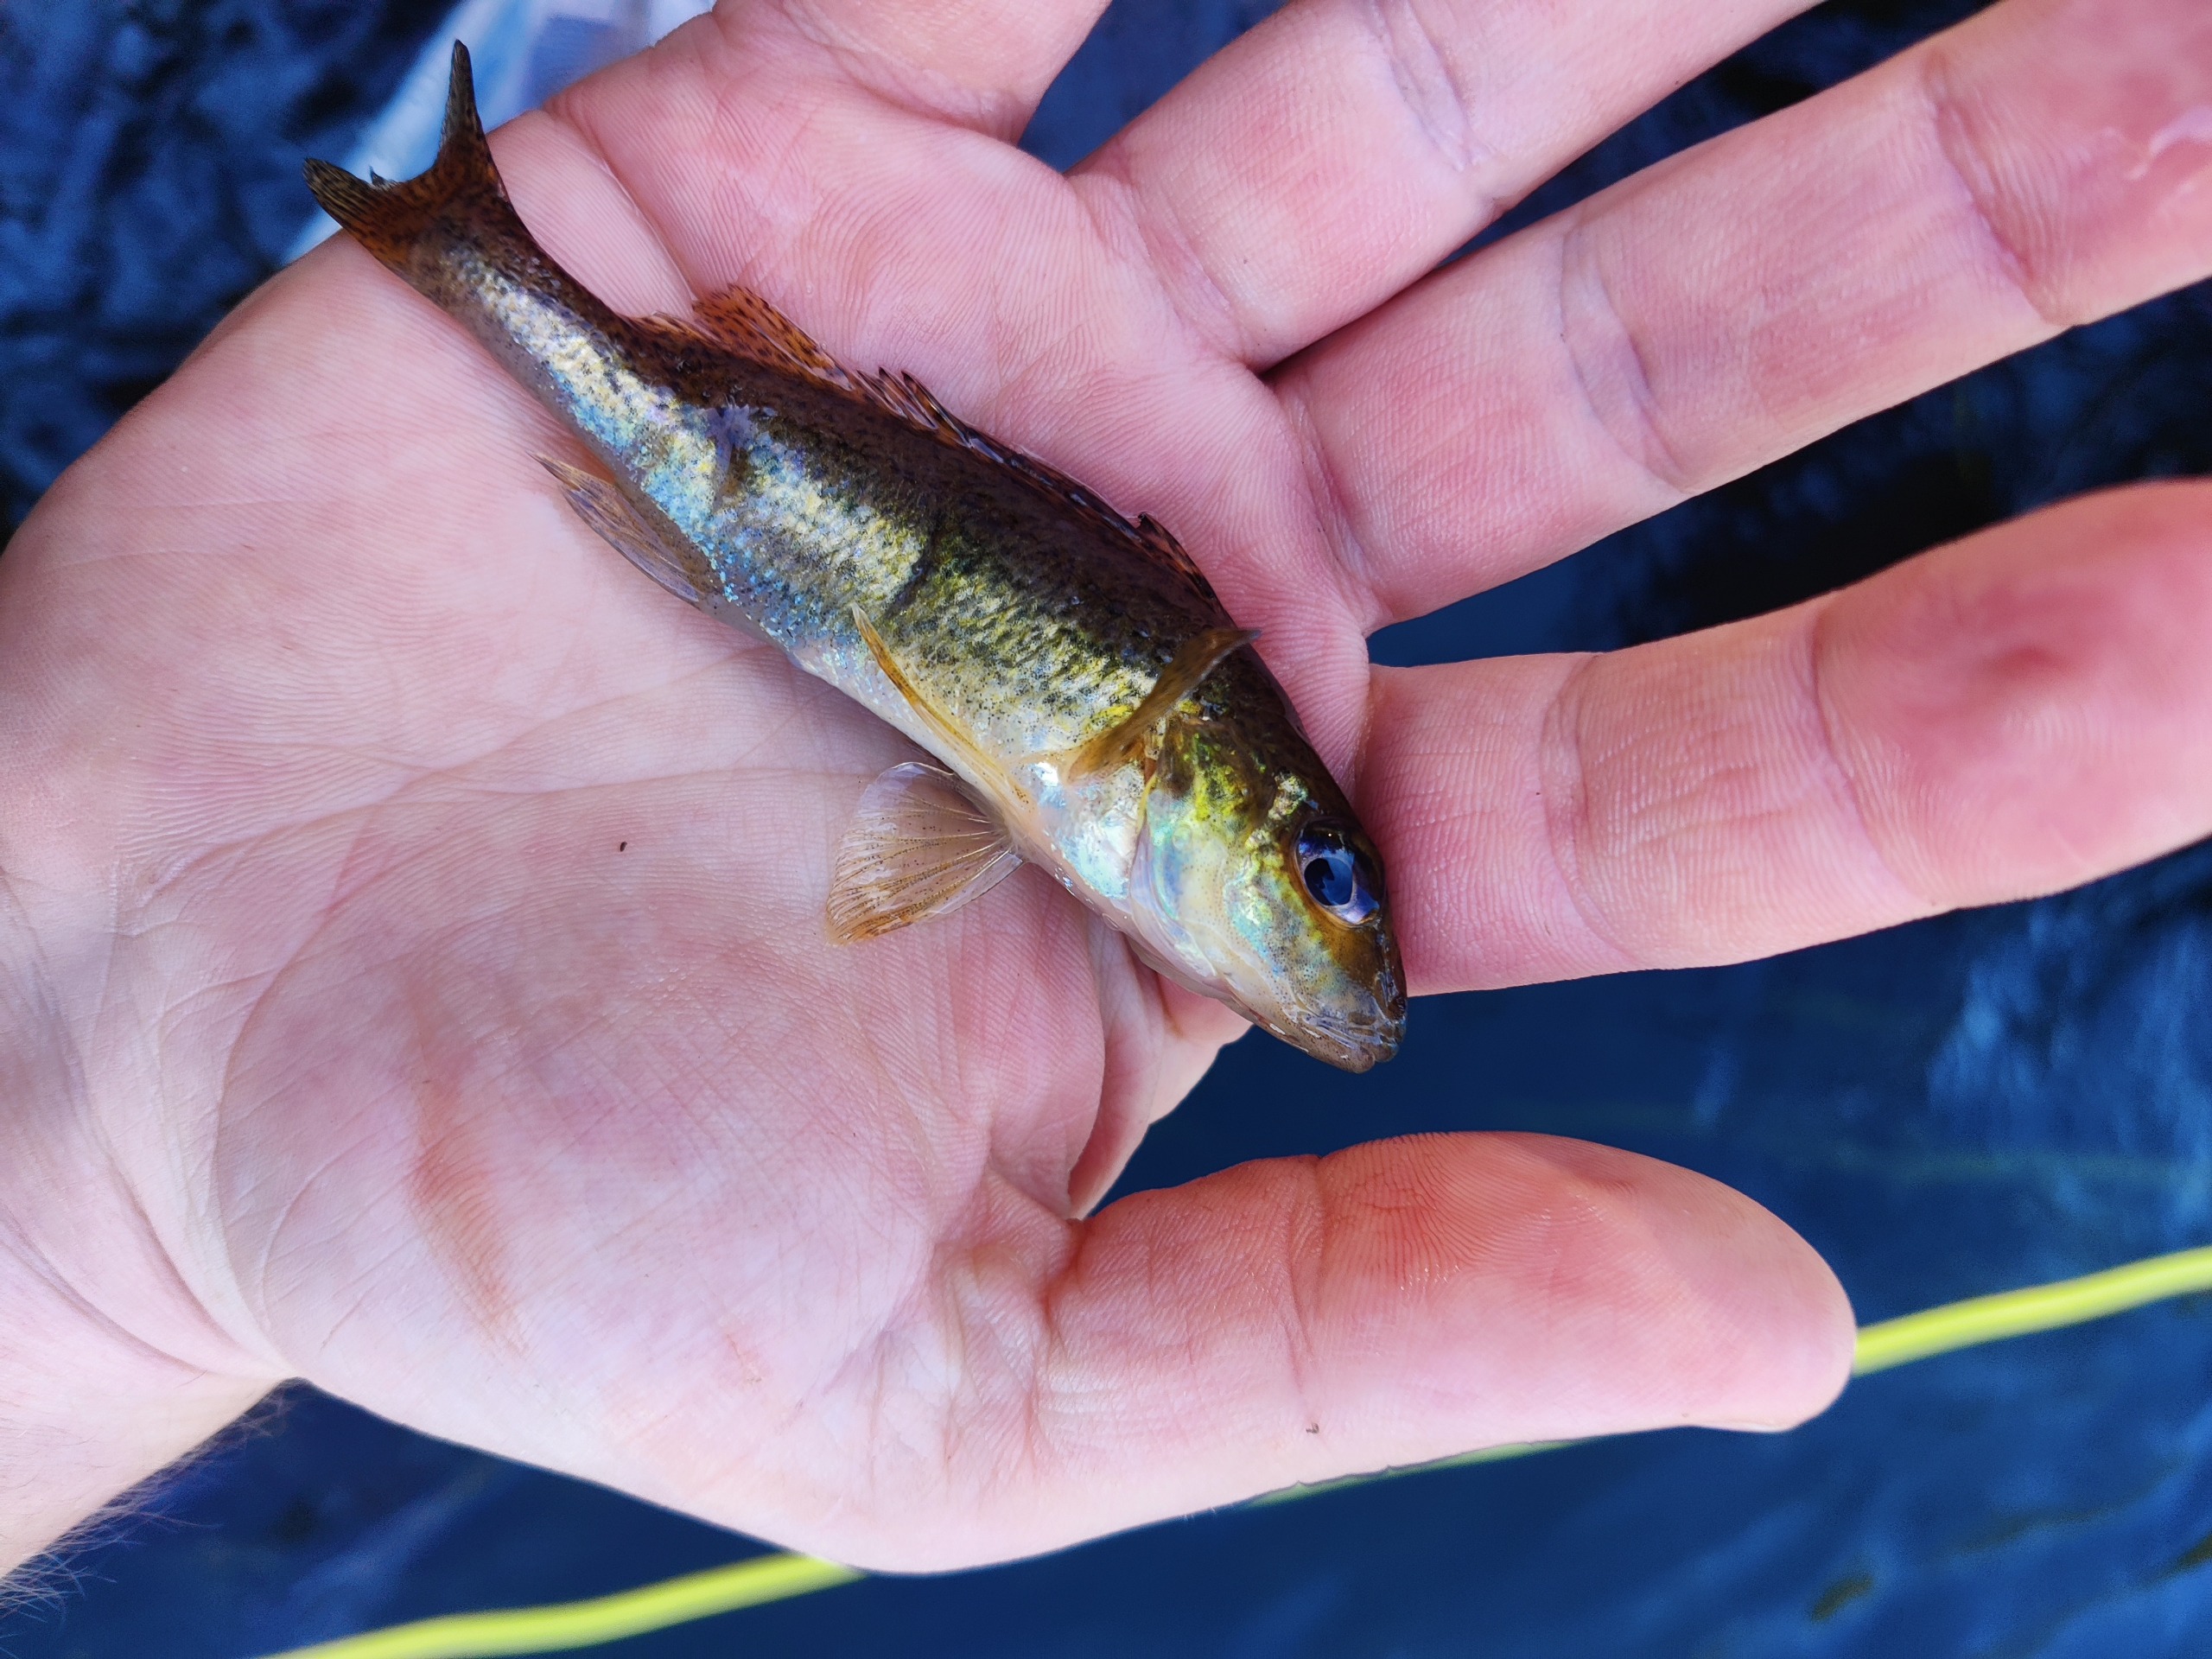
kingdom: Animalia
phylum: Chordata
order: Perciformes
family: Percidae
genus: Gymnocephalus
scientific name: Gymnocephalus cernua
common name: Hork
